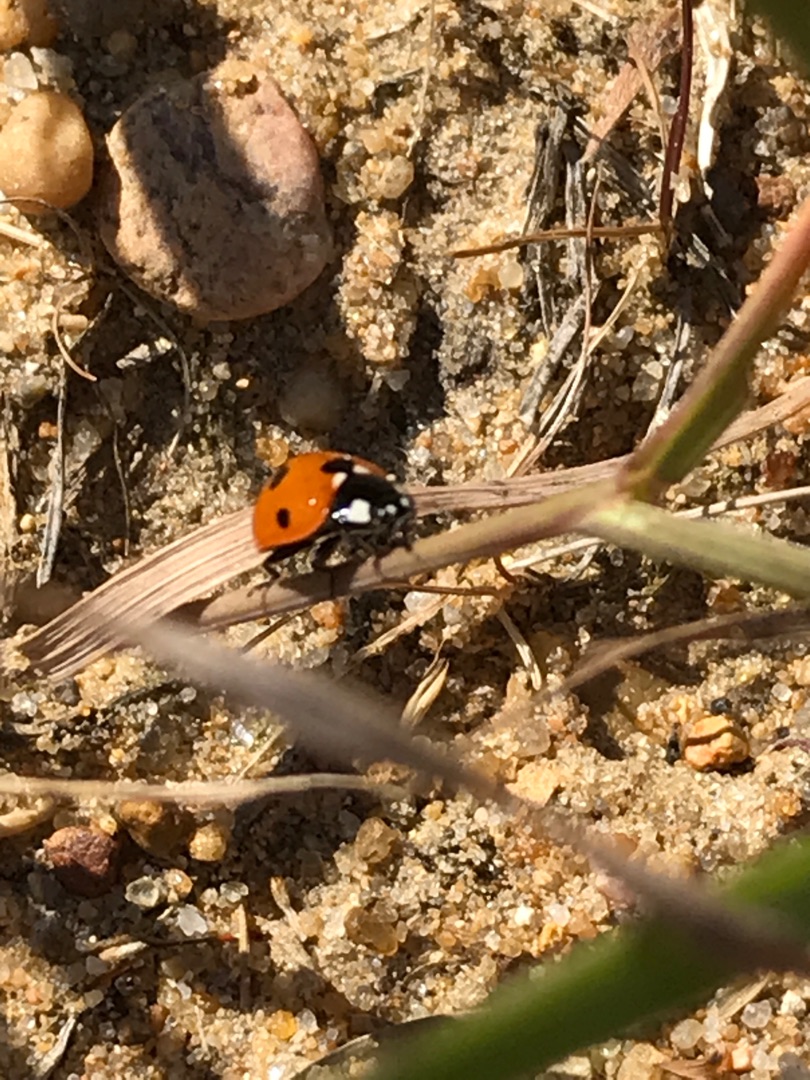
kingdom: Animalia
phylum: Arthropoda
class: Insecta
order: Coleoptera
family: Coccinellidae
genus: Coccinella
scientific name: Coccinella septempunctata
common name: Syvplettet mariehøne
